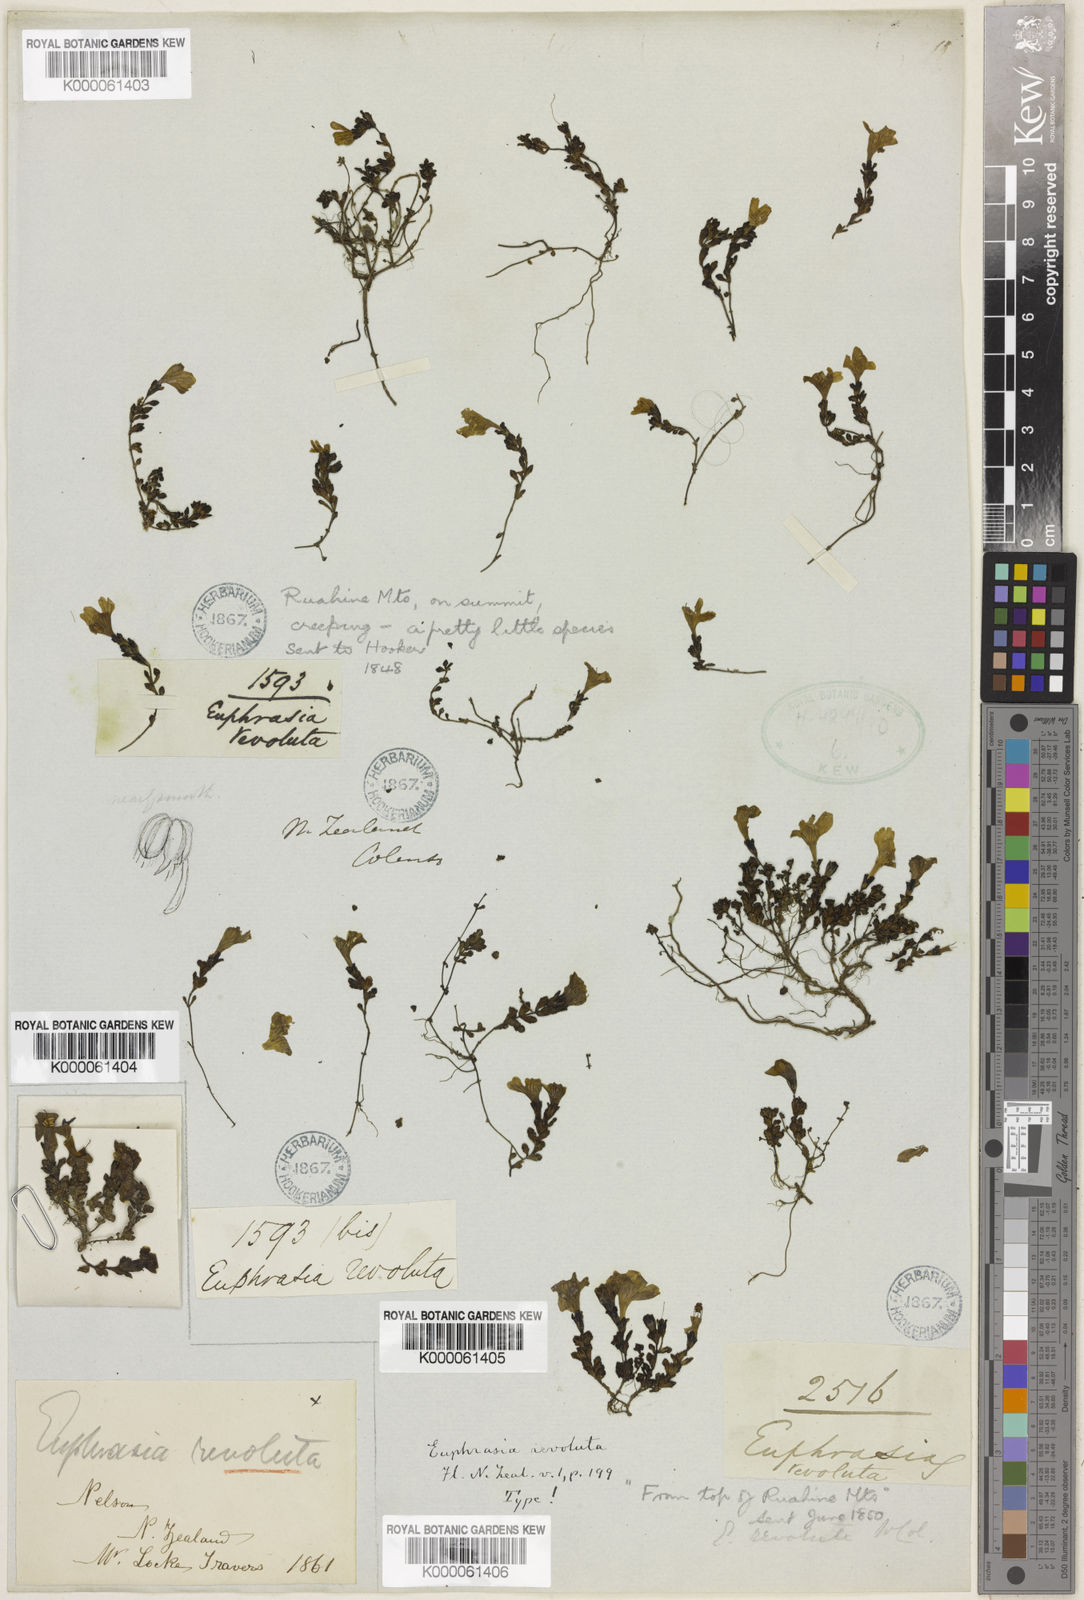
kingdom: Plantae
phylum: Tracheophyta
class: Magnoliopsida
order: Lamiales
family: Orobanchaceae
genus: Euphrasia
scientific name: Euphrasia revoluta
